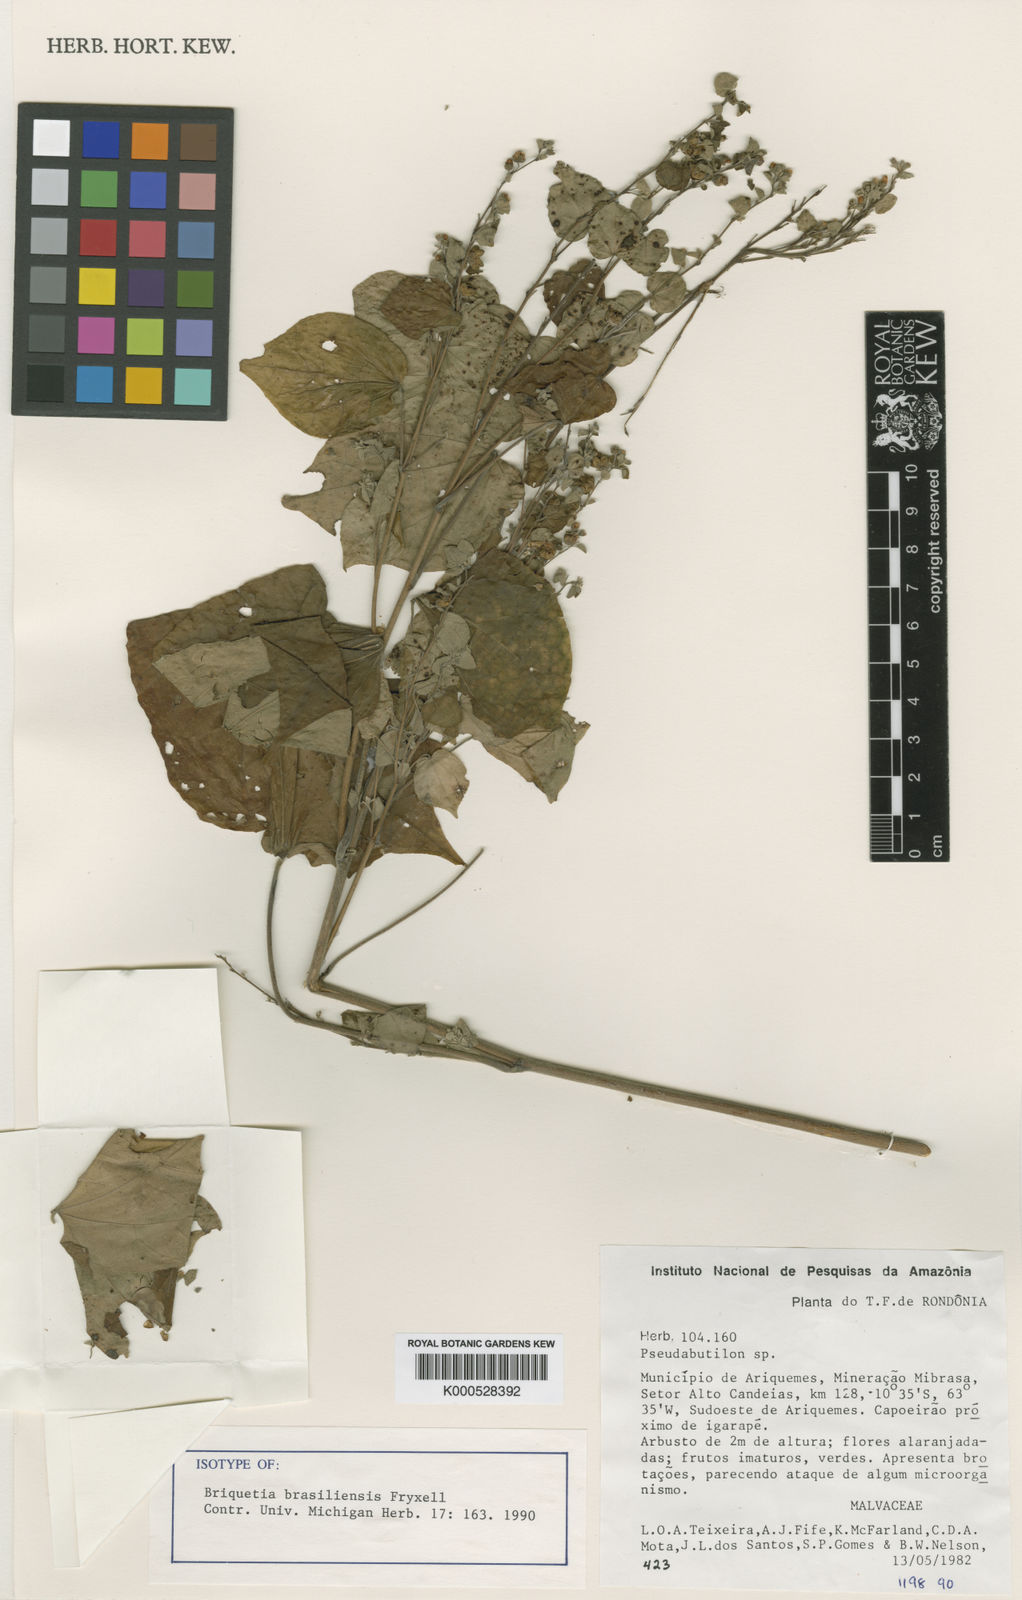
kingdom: Plantae
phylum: Tracheophyta
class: Magnoliopsida
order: Malvales
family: Malvaceae
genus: Briquetia
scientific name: Briquetia brasiliensis
